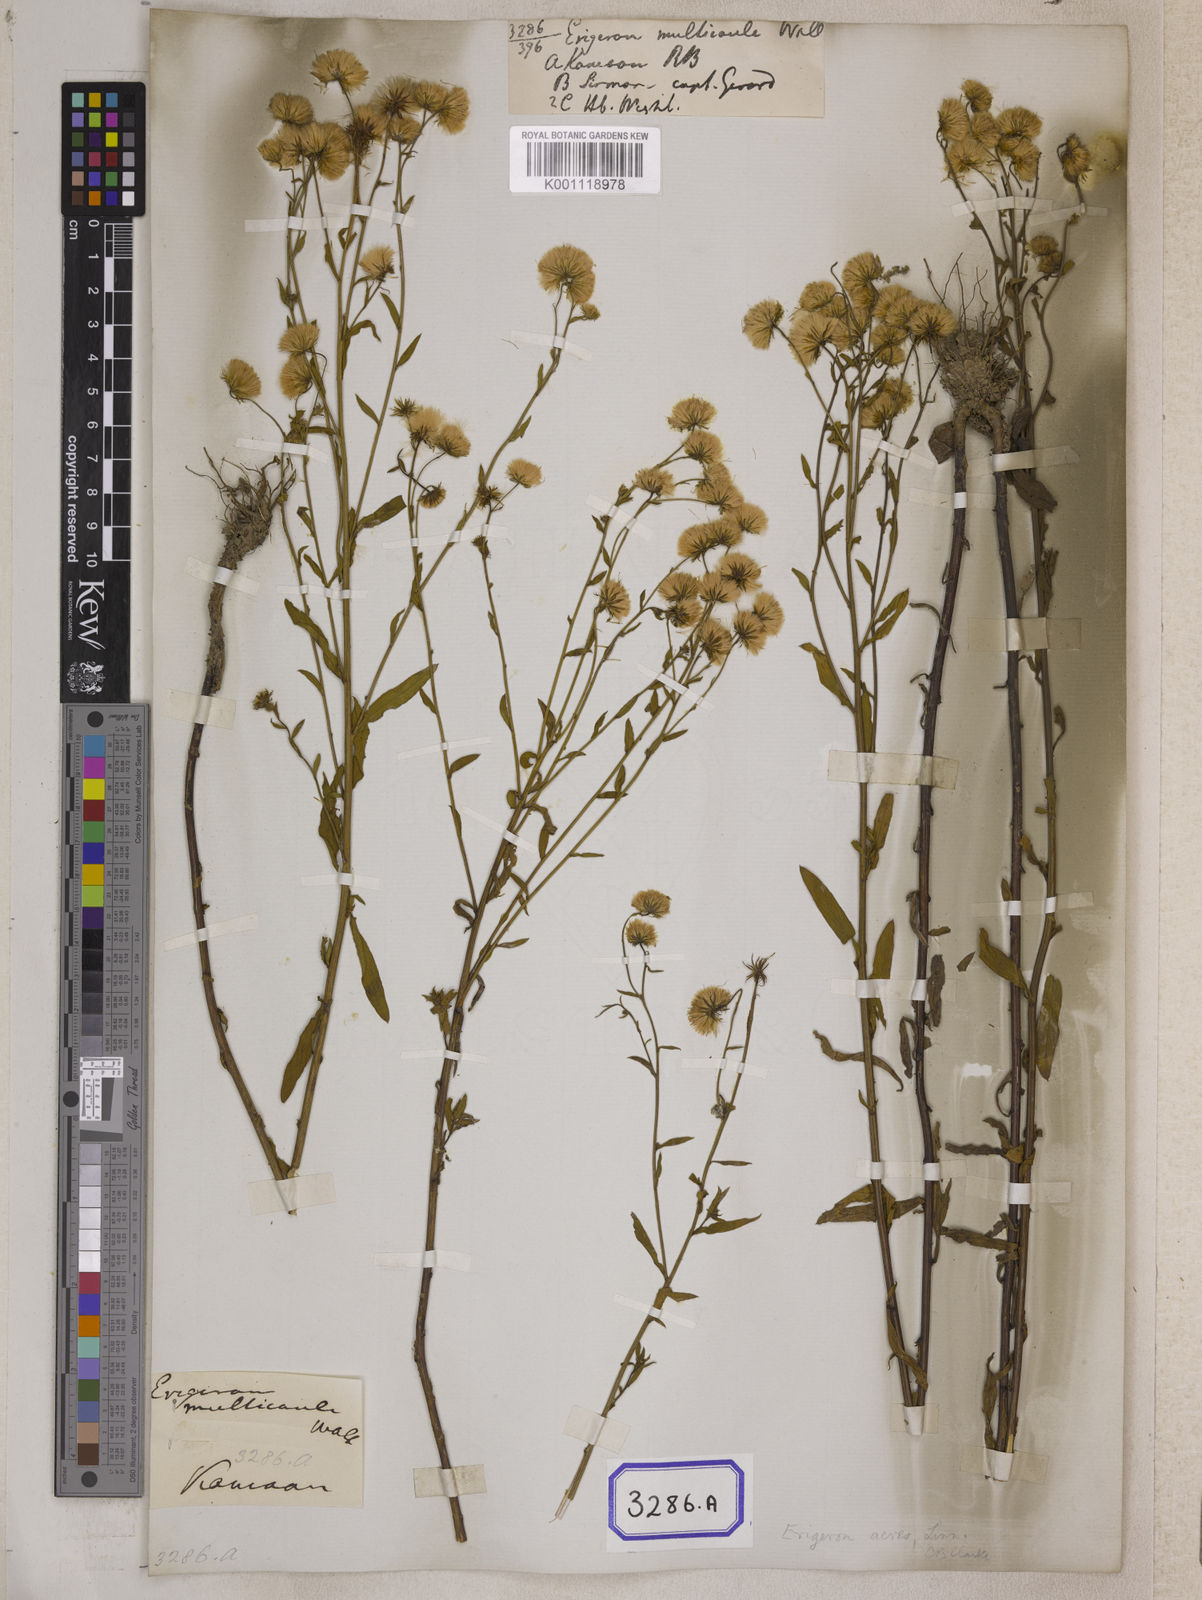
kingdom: Plantae
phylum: Tracheophyta
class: Magnoliopsida
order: Asterales
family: Asteraceae
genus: Erigeron
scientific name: Erigeron acris
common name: Blue fleabane
